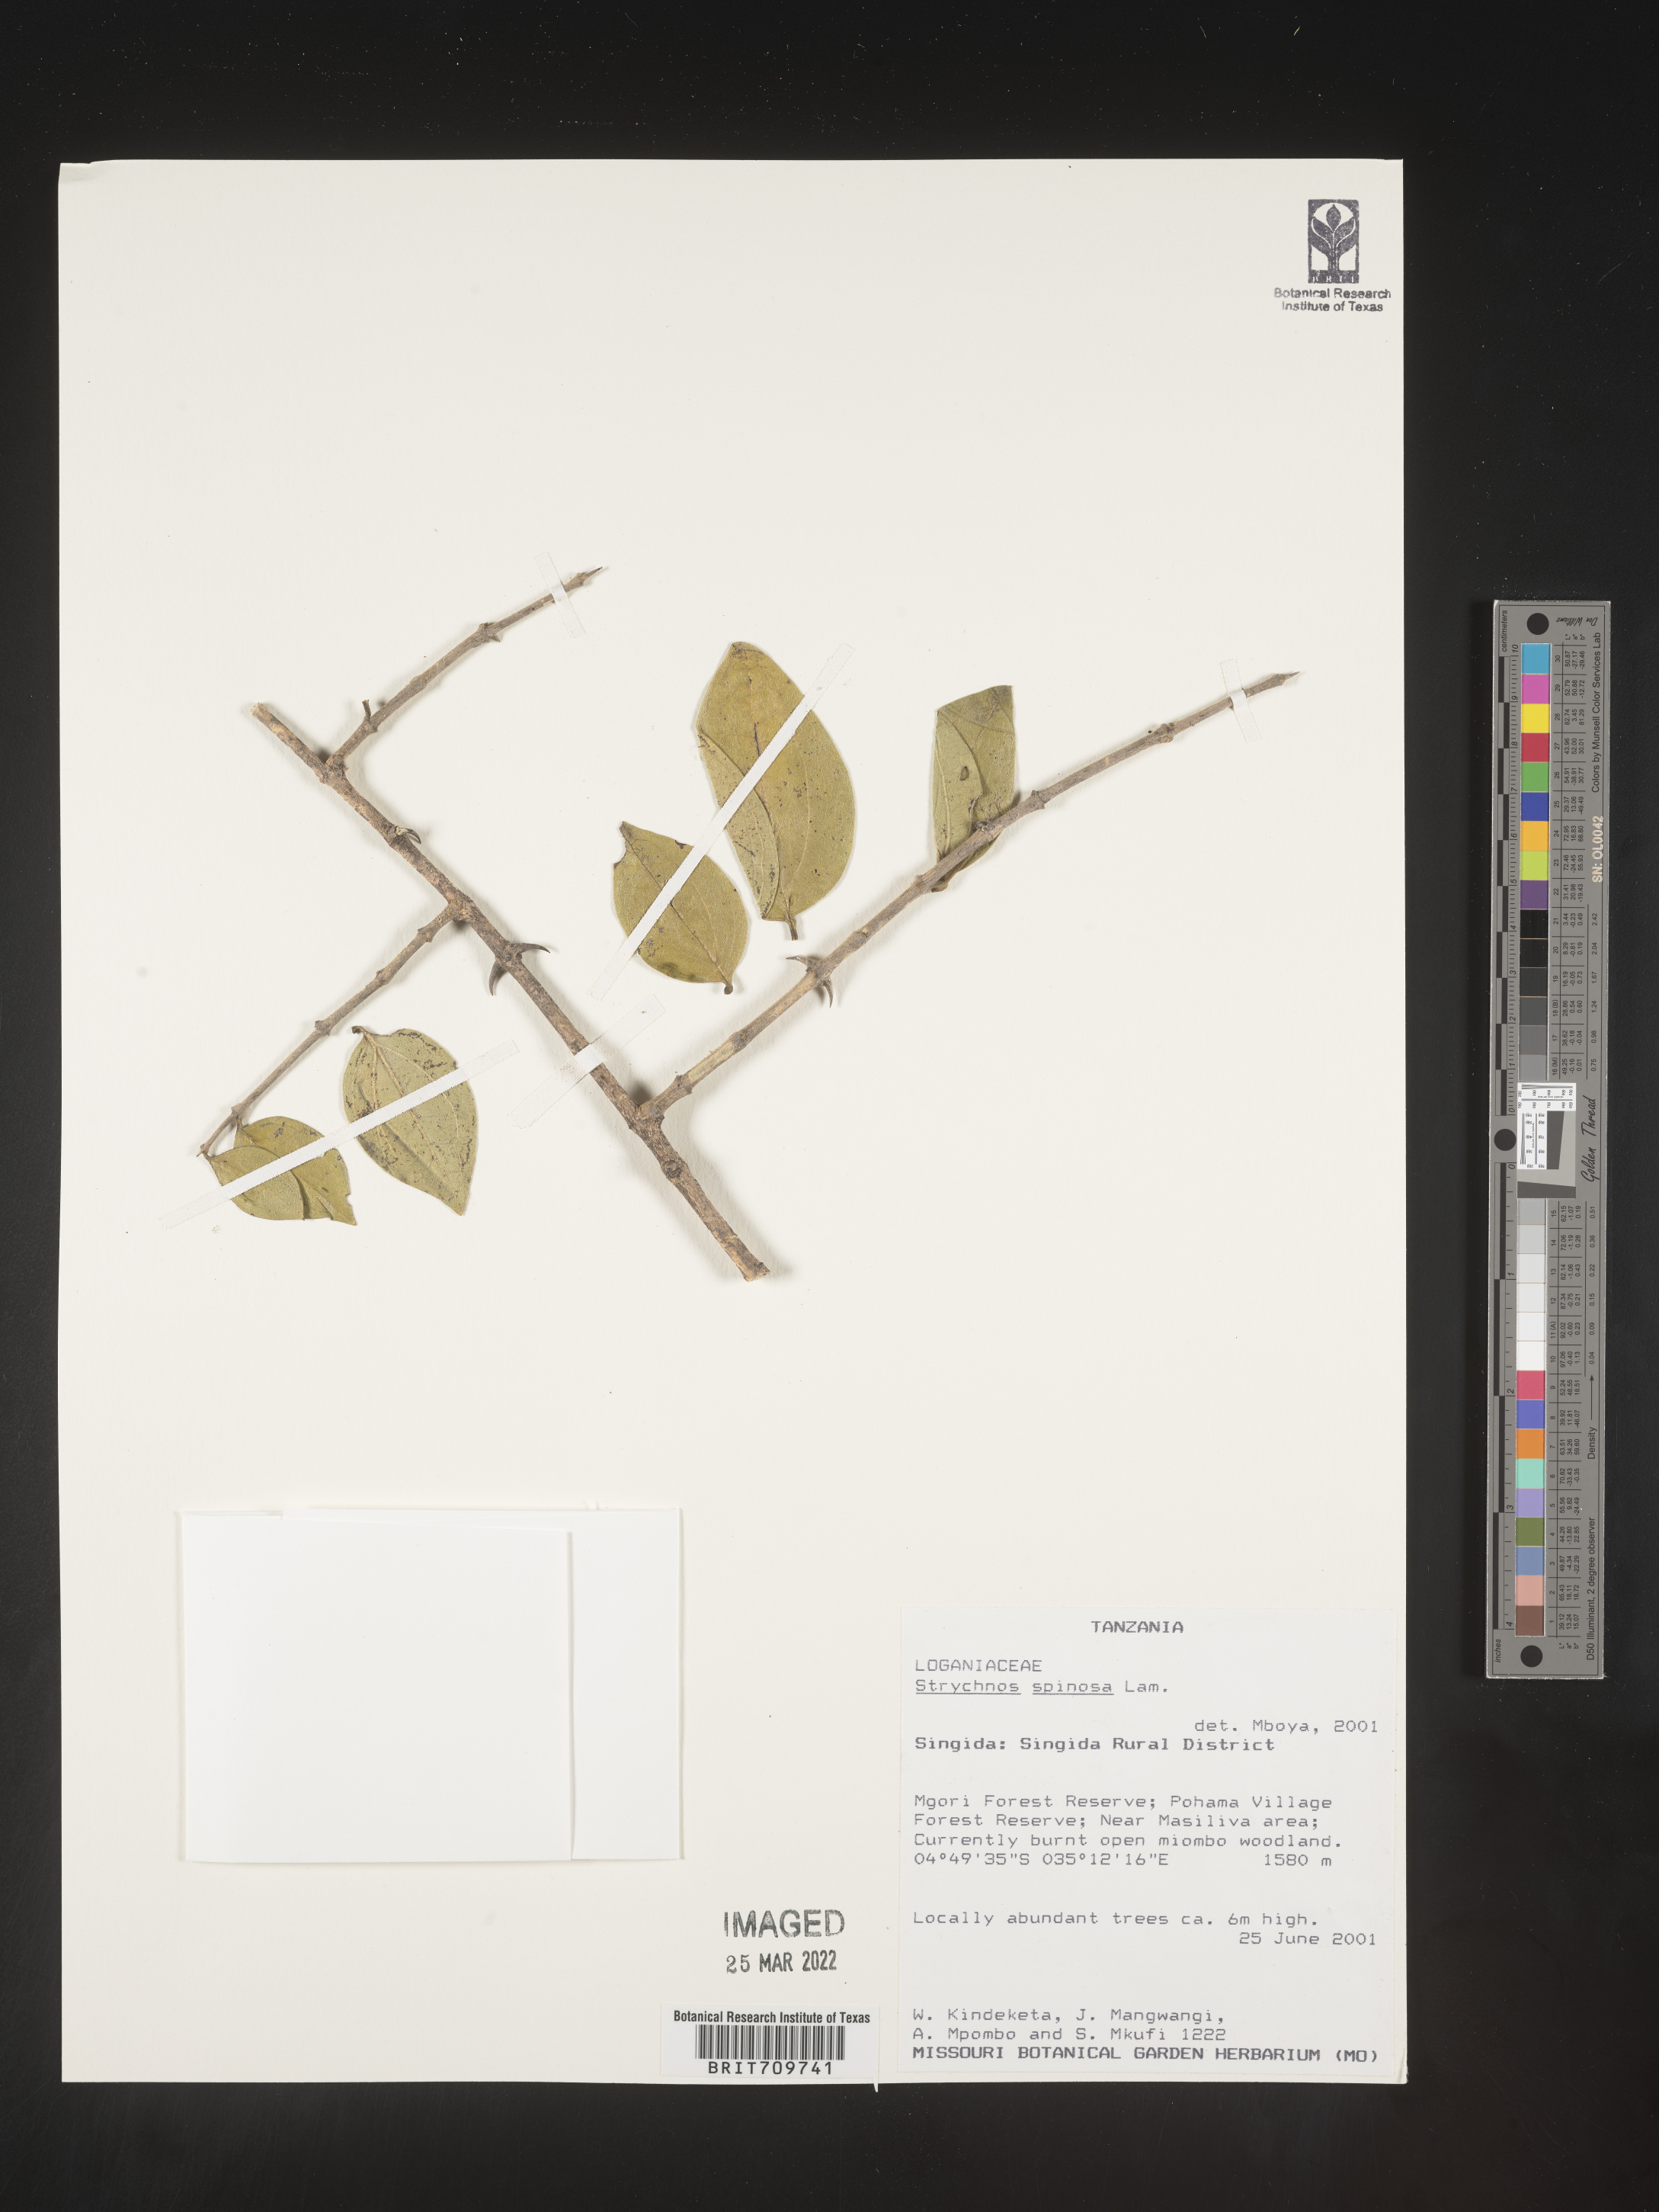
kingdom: Plantae
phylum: Tracheophyta
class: Magnoliopsida
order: Gentianales
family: Loganiaceae
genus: Strychnos
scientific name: Strychnos
